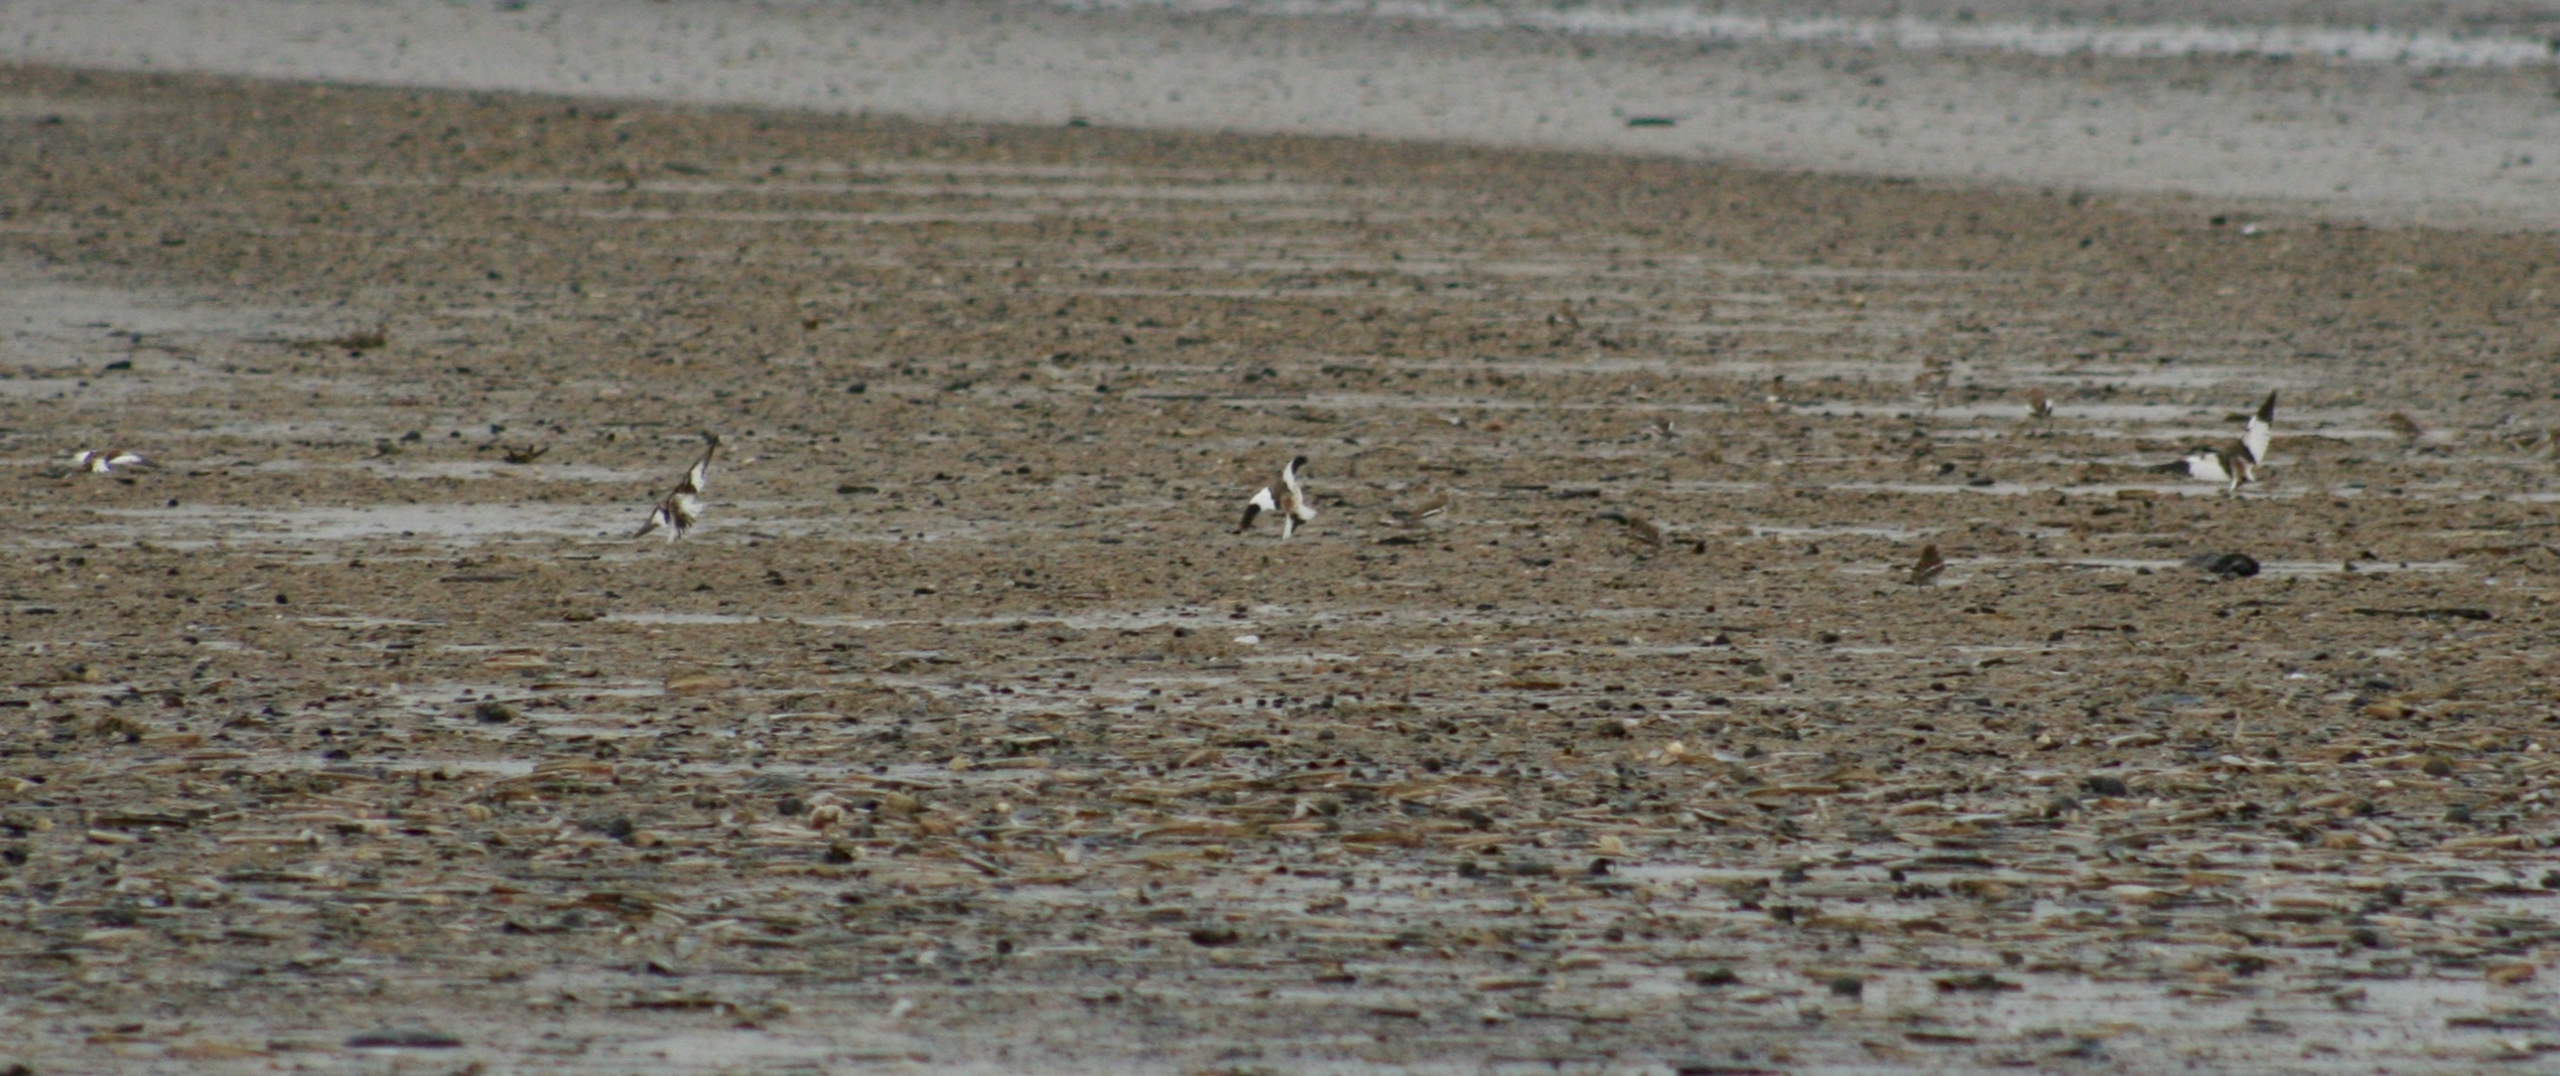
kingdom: Animalia
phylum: Chordata
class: Aves
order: Passeriformes
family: Calcariidae
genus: Plectrophenax
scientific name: Plectrophenax nivalis
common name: Snespurv
